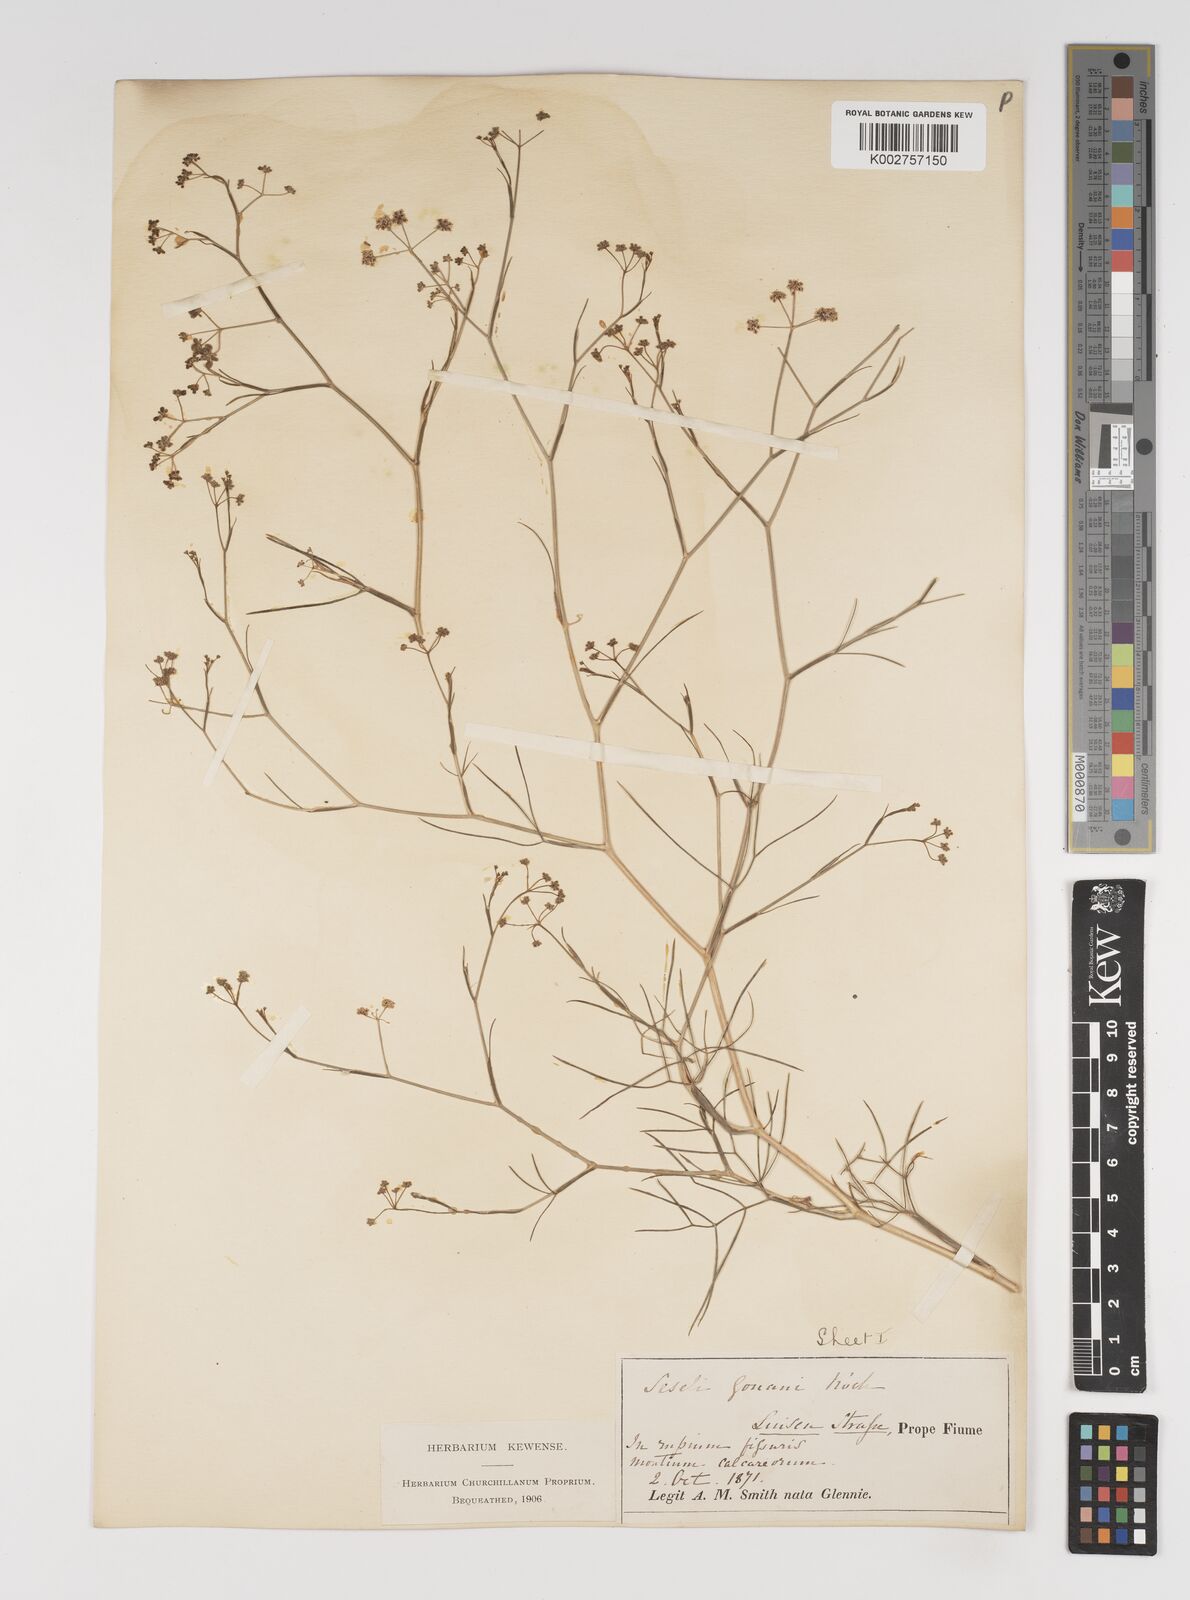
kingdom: Plantae
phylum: Tracheophyta
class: Magnoliopsida
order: Apiales
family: Apiaceae
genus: Seseli
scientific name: Seseli longifolium
